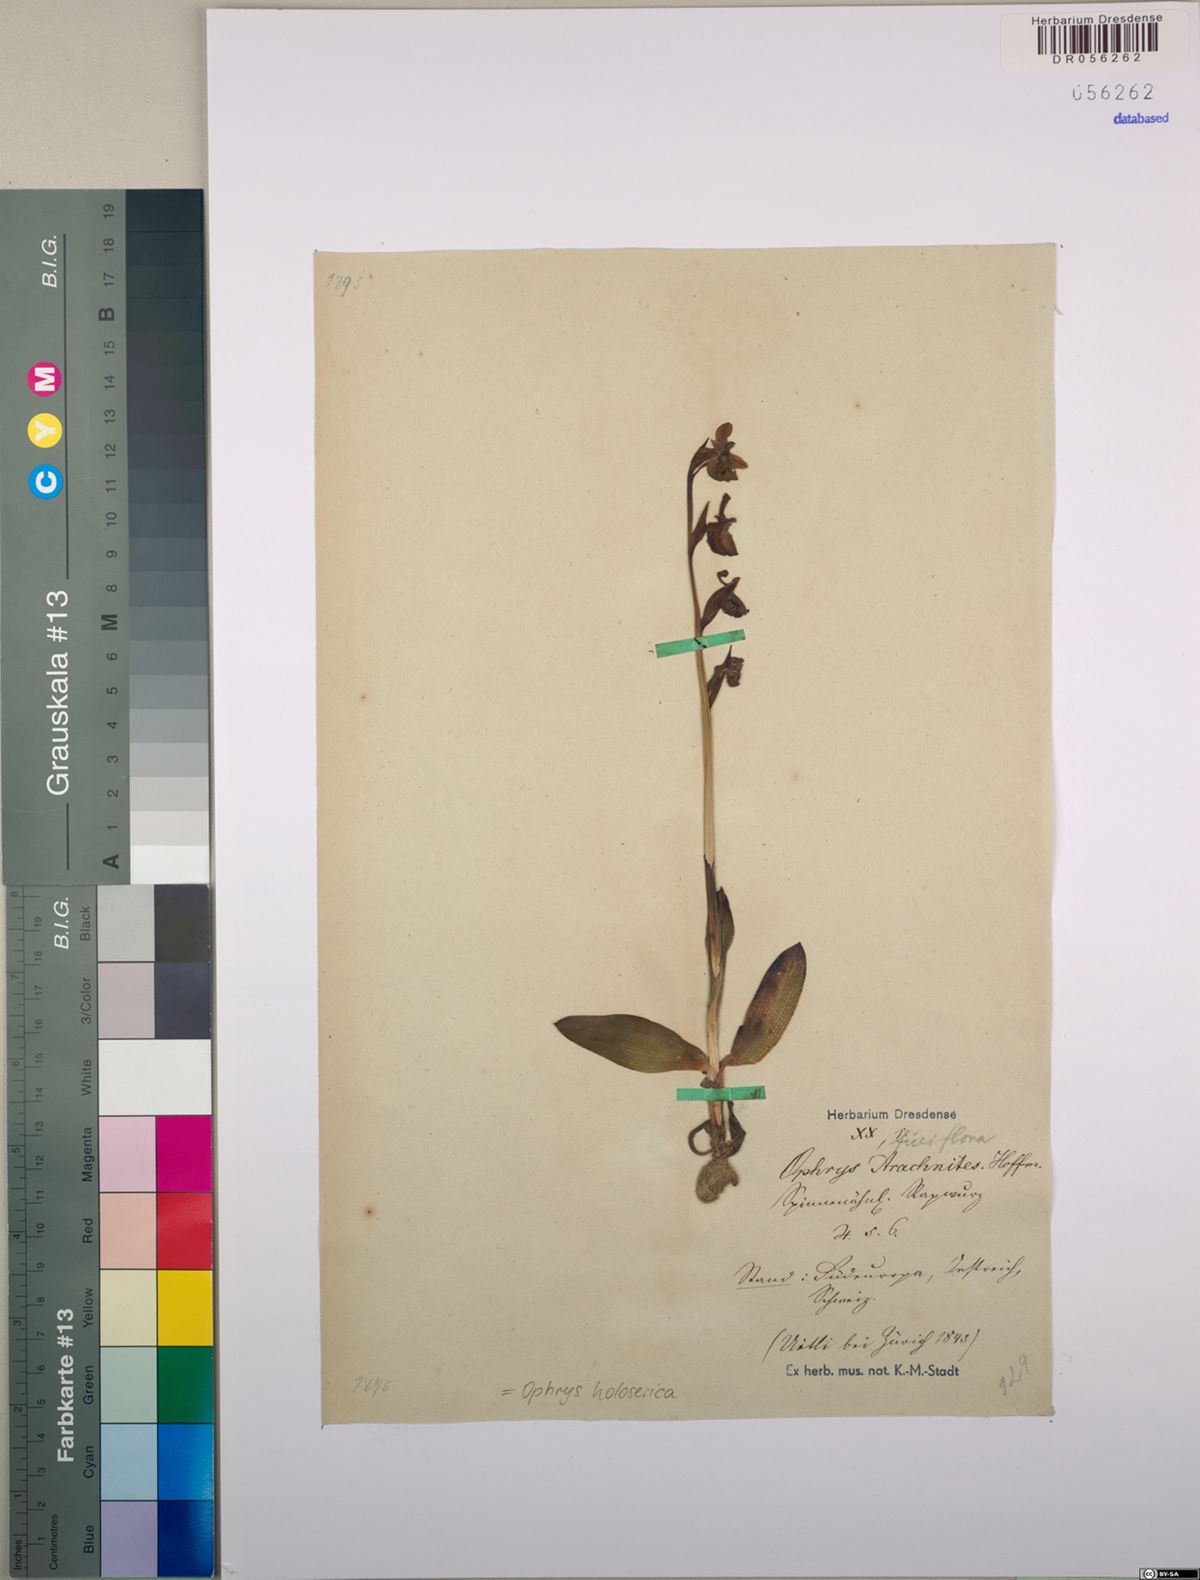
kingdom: Plantae
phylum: Tracheophyta
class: Liliopsida
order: Asparagales
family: Orchidaceae
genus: Ophrys
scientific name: Ophrys holosericea
